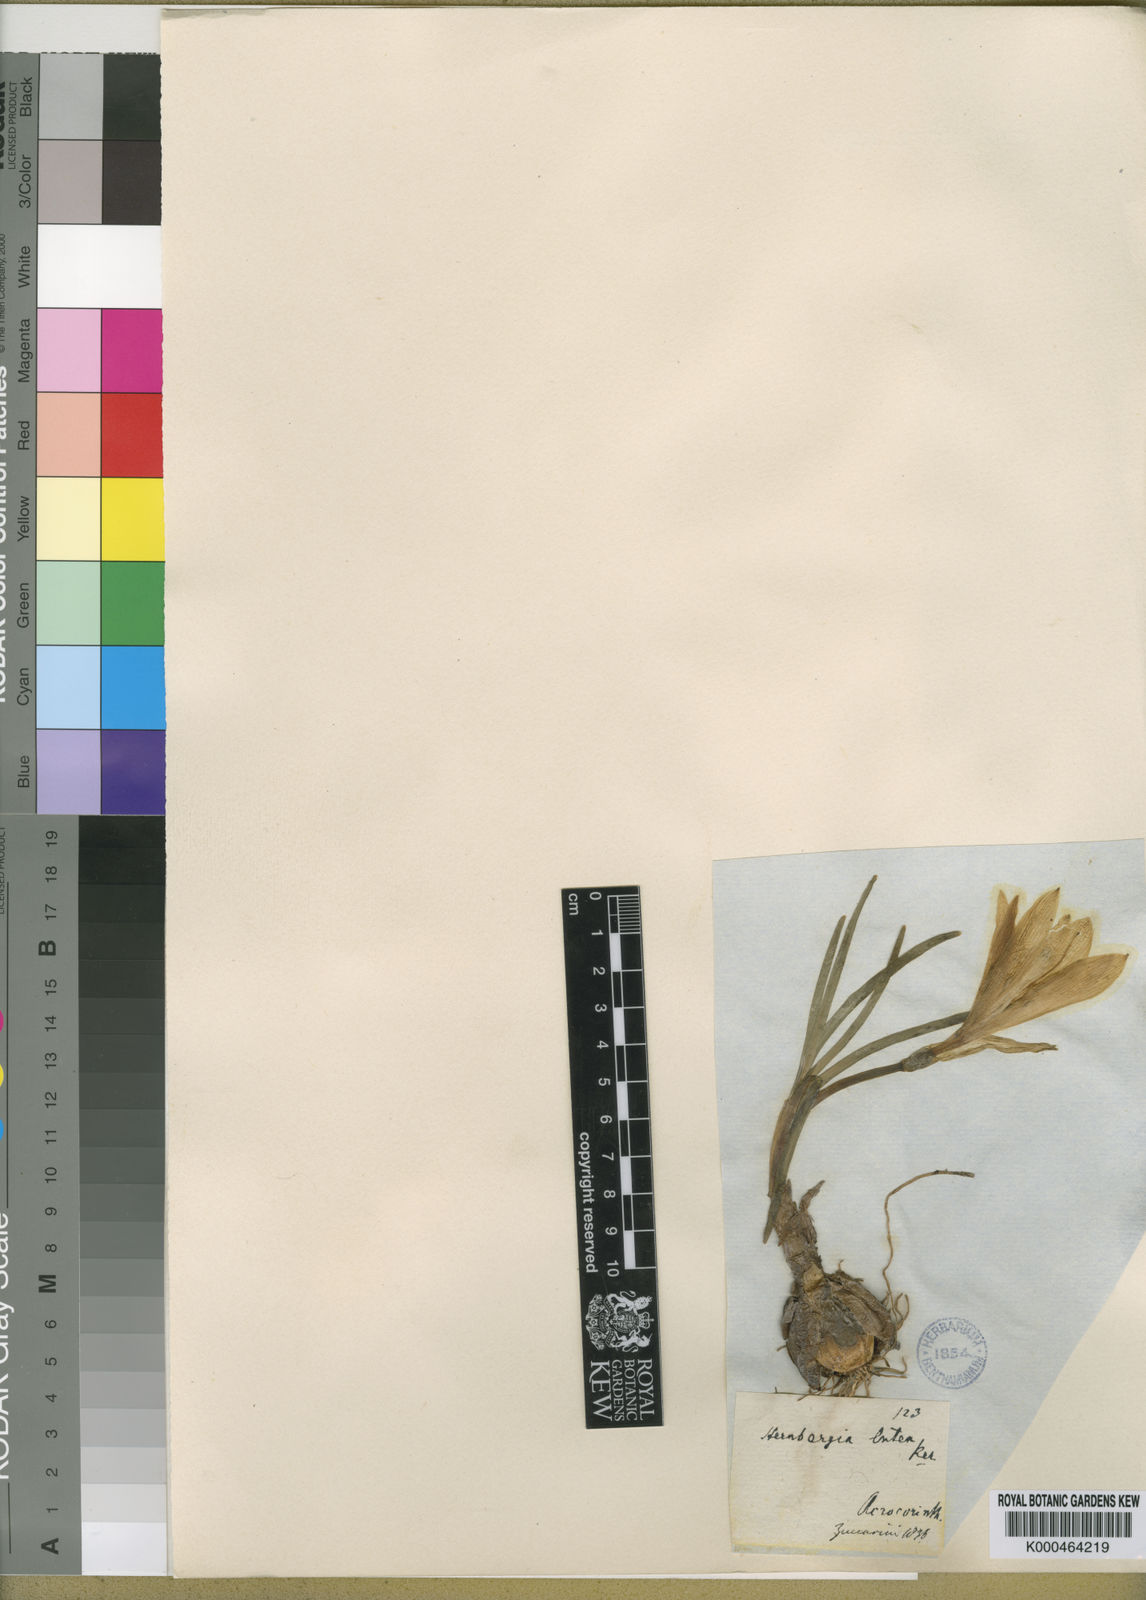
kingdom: Plantae
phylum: Tracheophyta
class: Liliopsida
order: Asparagales
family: Amaryllidaceae
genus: Sternbergia
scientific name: Sternbergia
